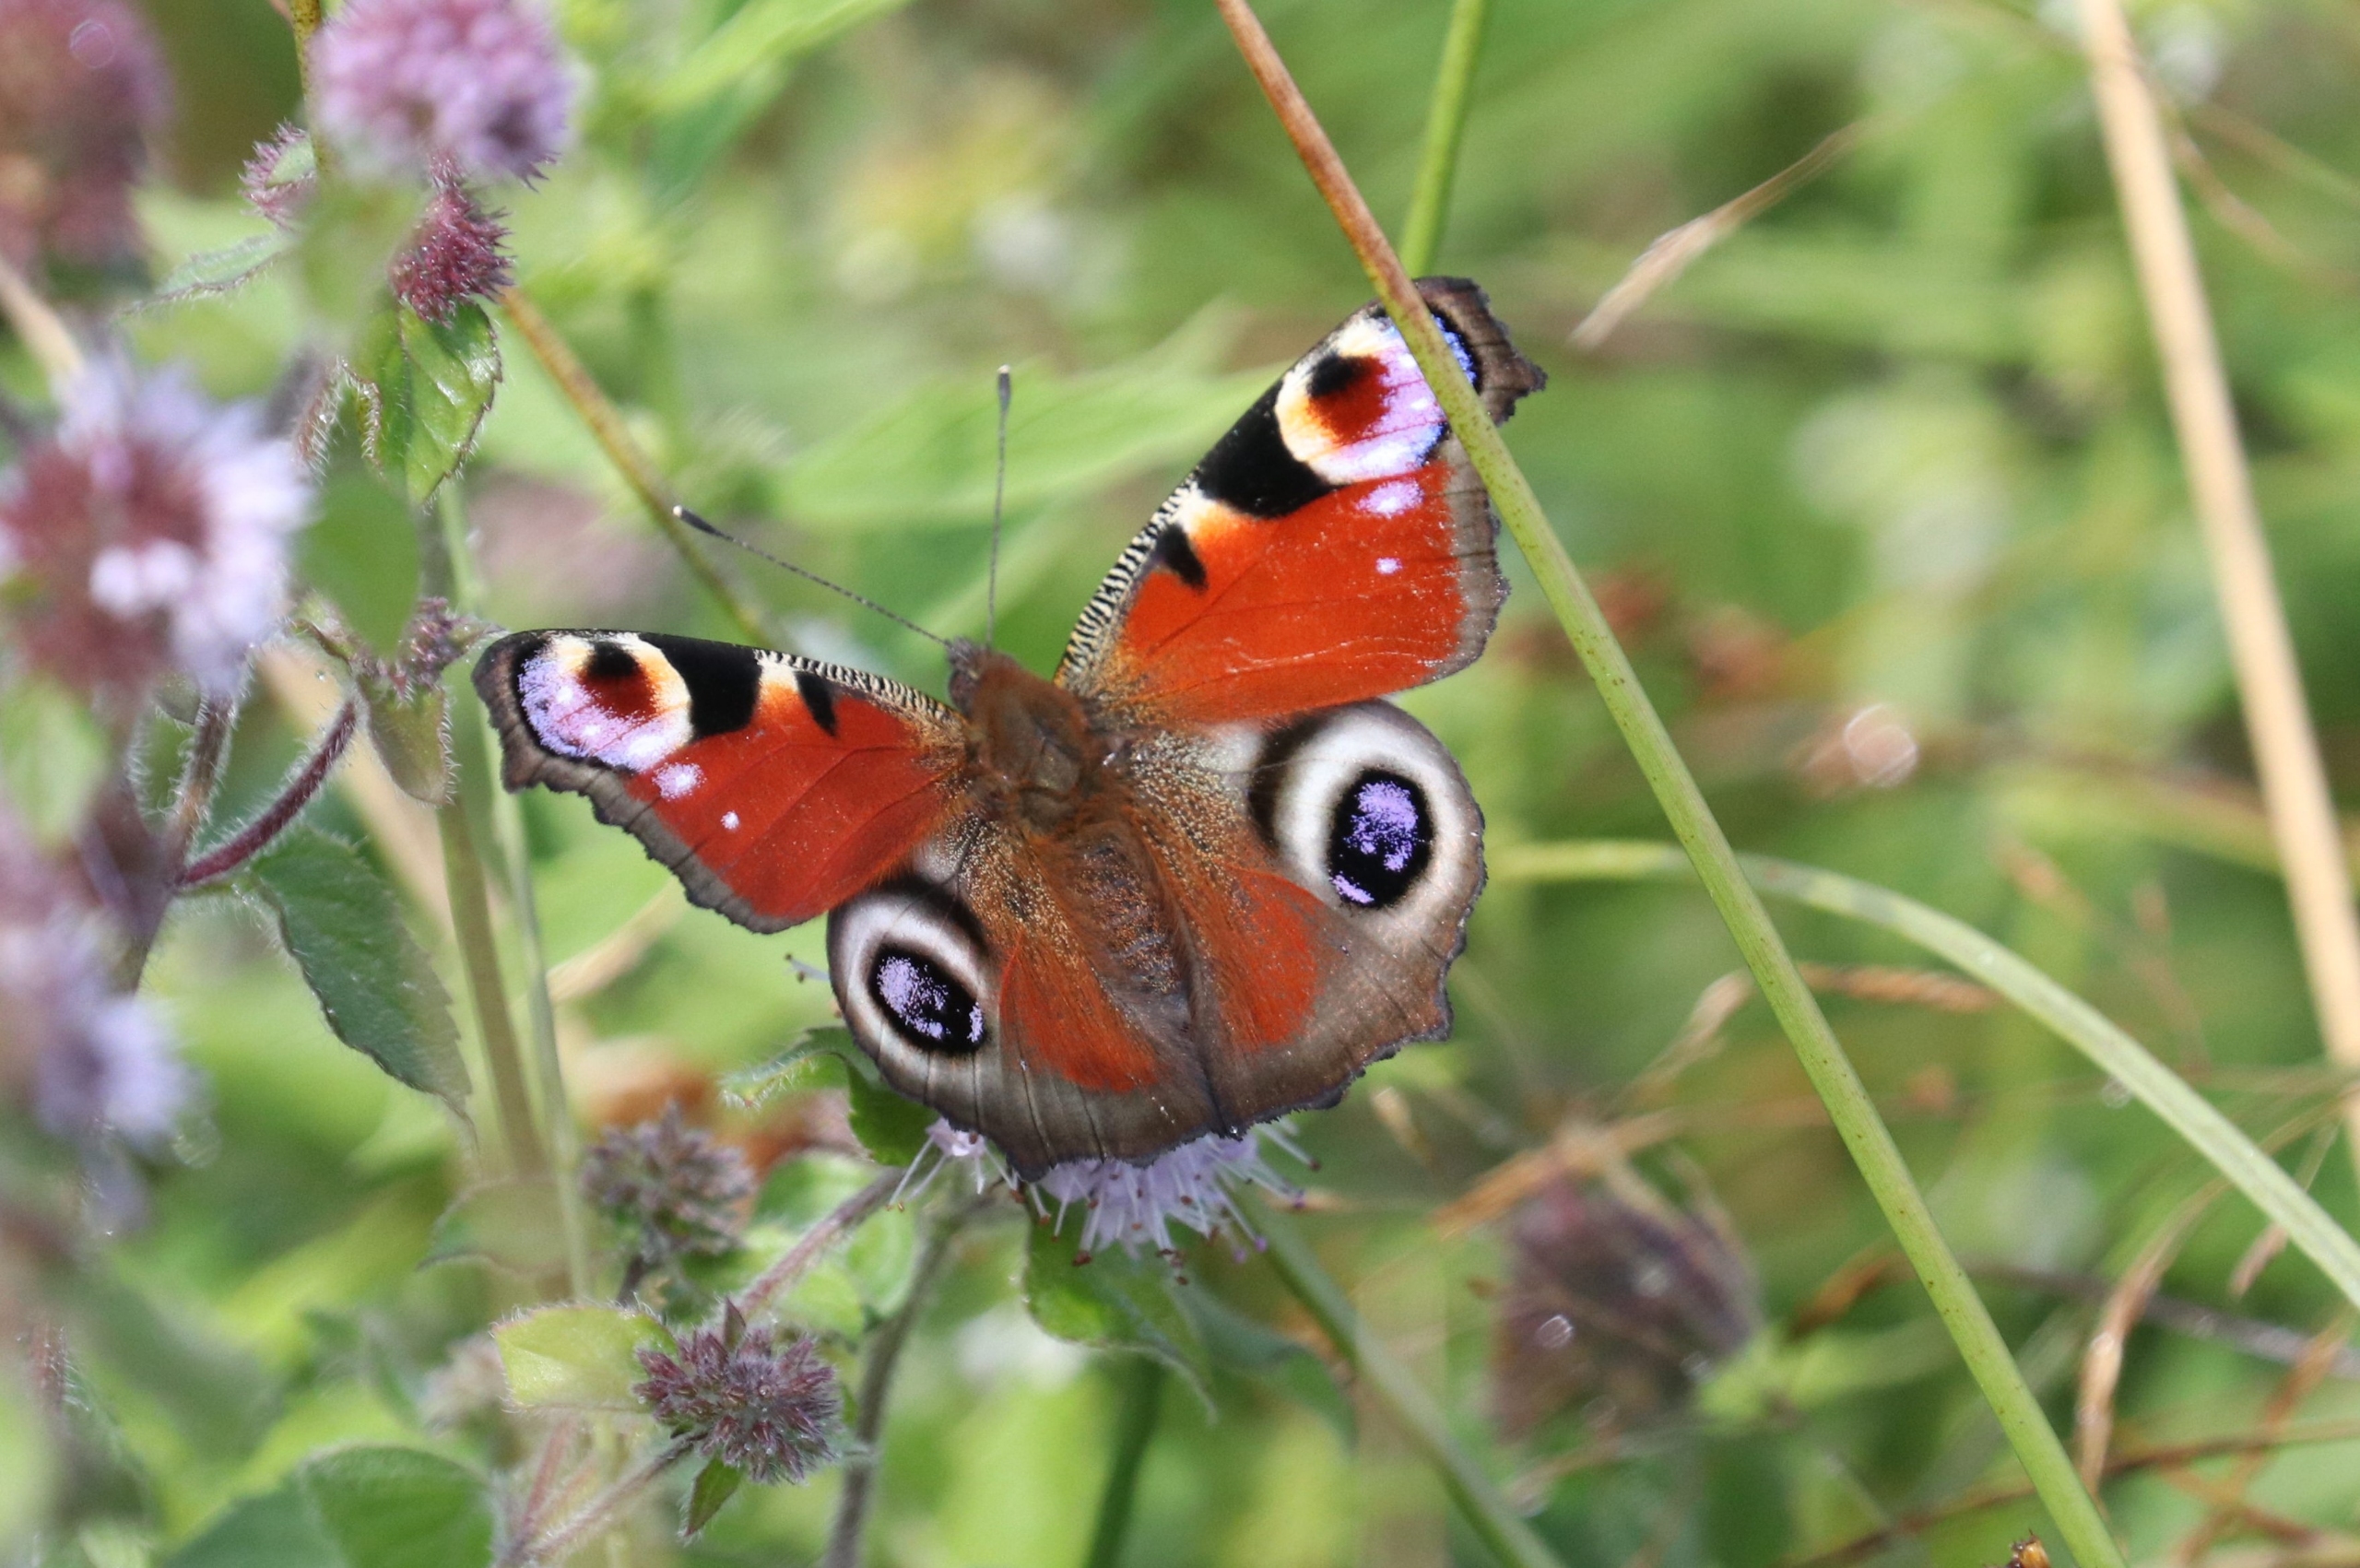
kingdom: Animalia
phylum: Arthropoda
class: Insecta
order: Lepidoptera
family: Nymphalidae
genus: Aglais
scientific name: Aglais io
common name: Dagpåfugleøje
